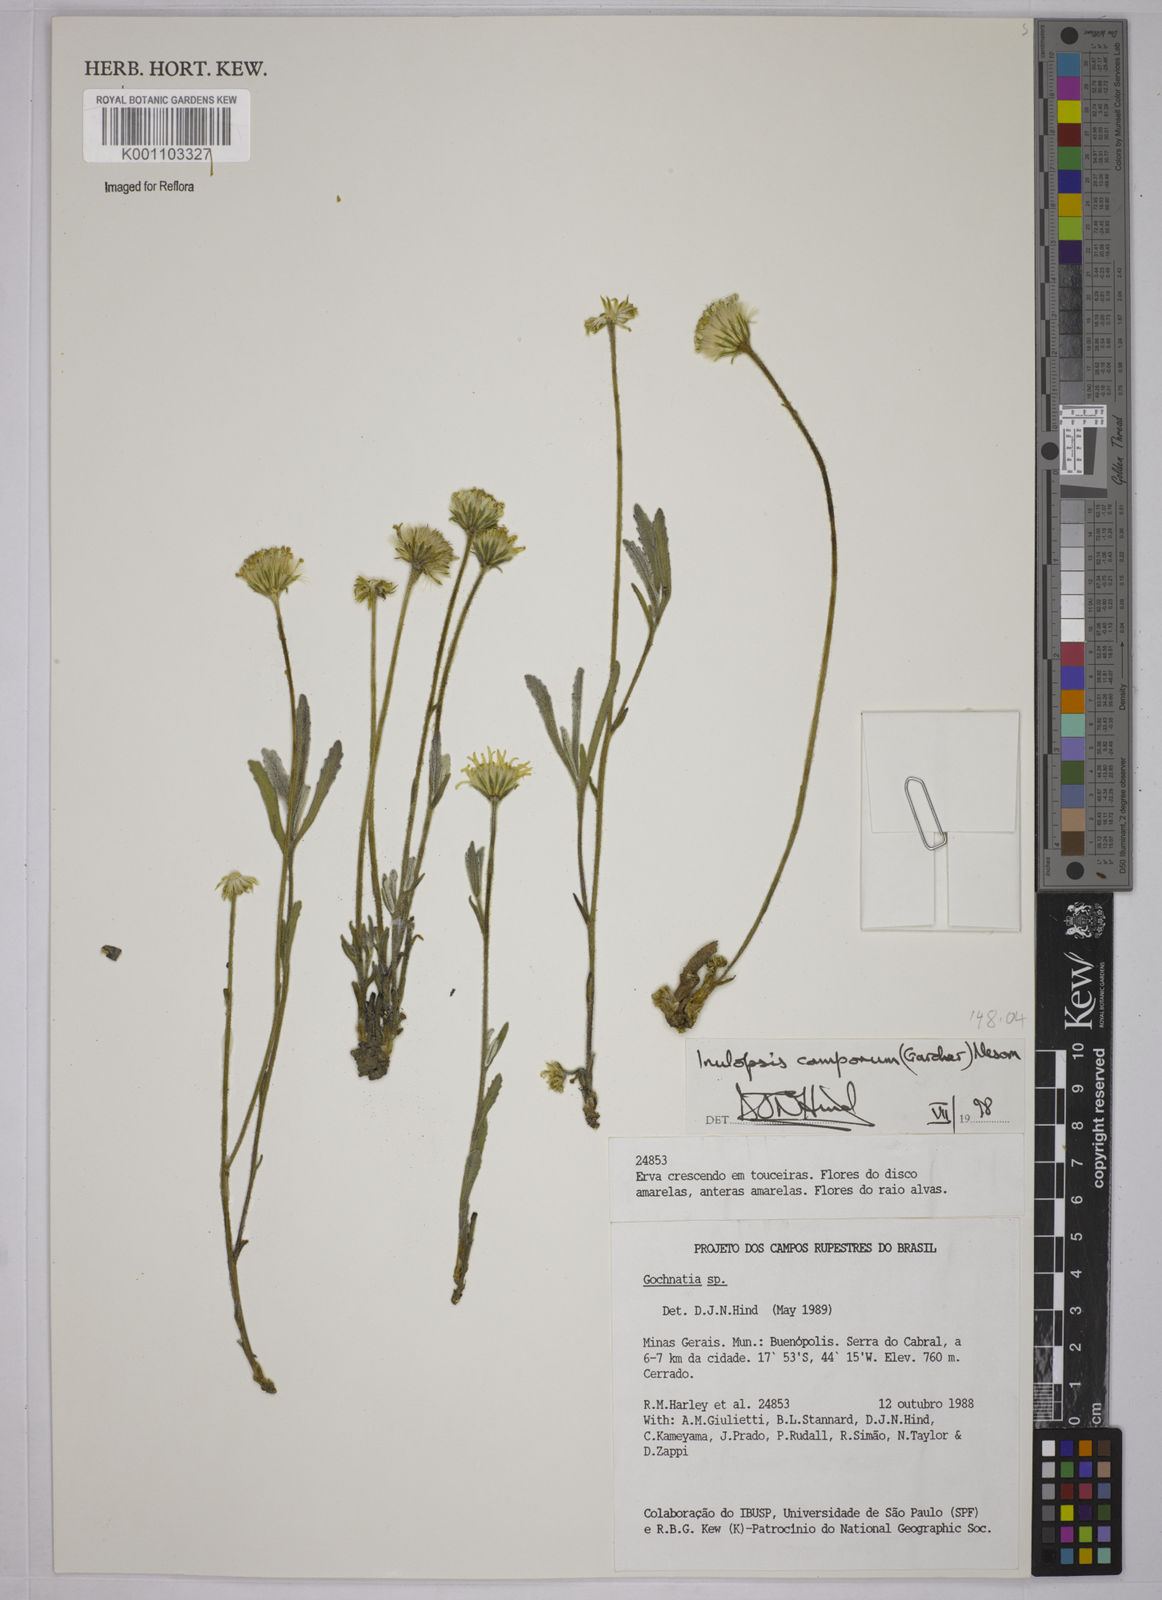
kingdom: Plantae
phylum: Tracheophyta
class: Magnoliopsida
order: Asterales
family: Asteraceae
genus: Inulopsis
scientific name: Inulopsis camporum
